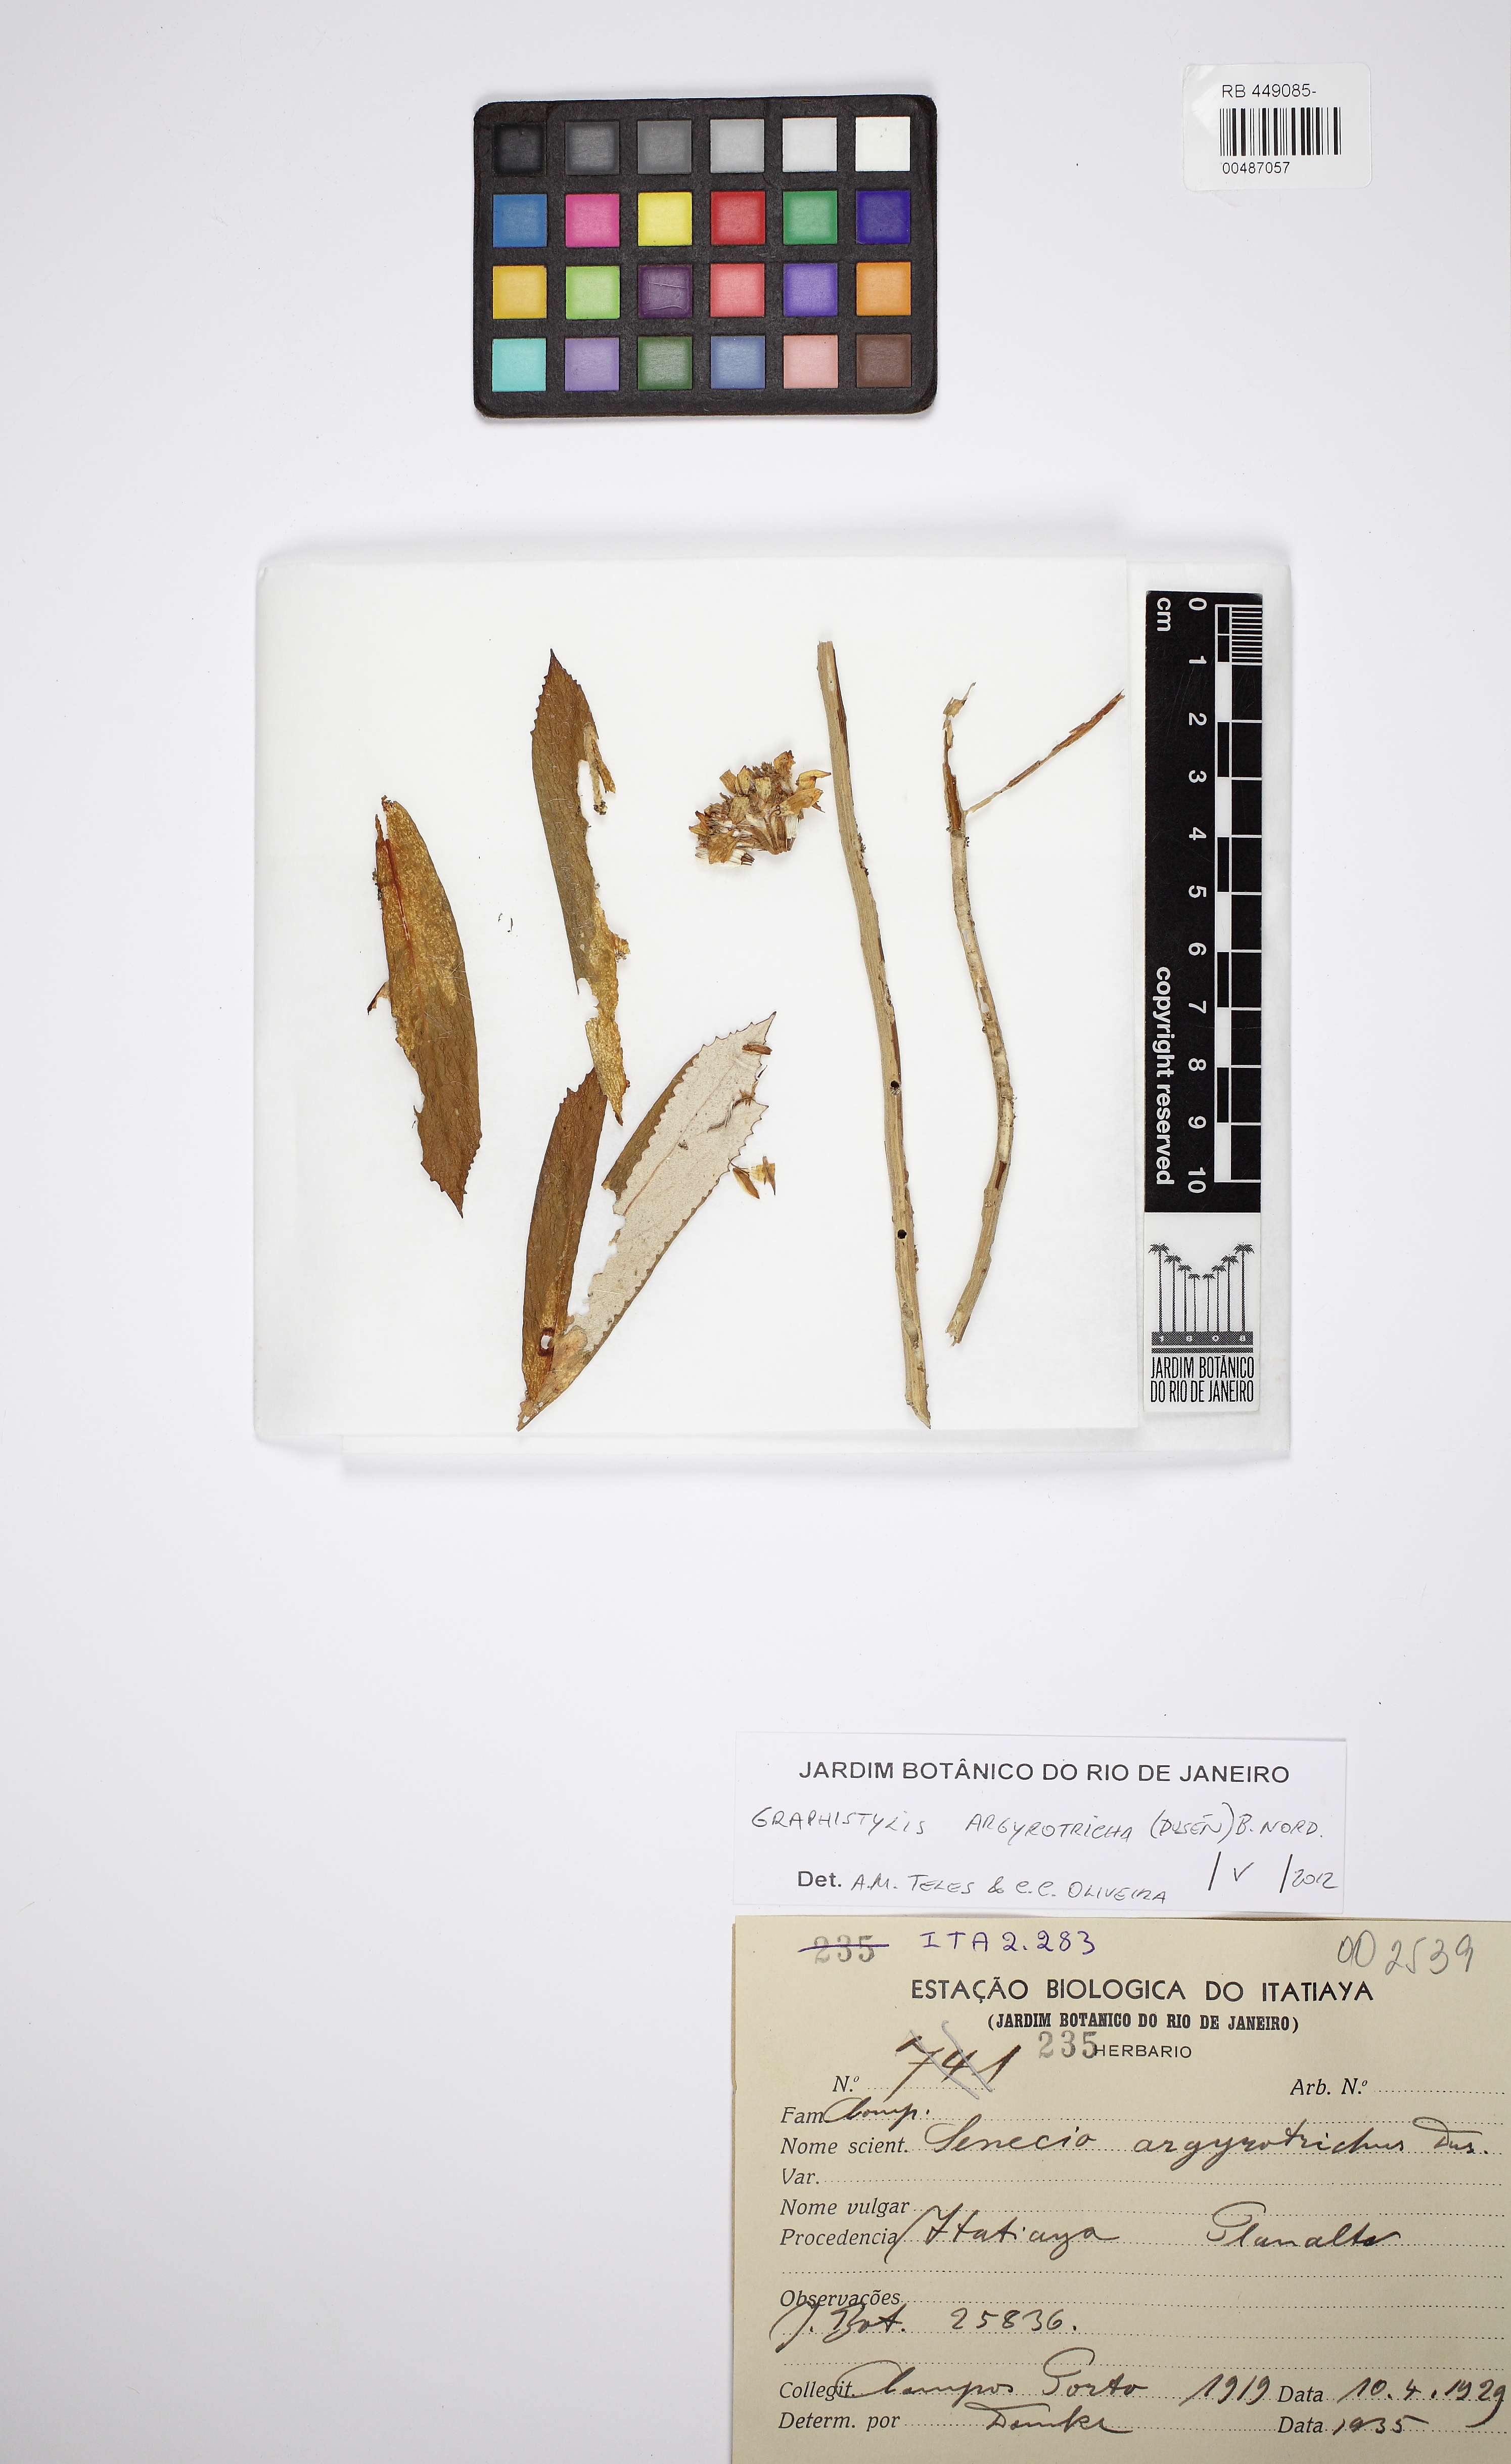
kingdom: Plantae
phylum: Tracheophyta
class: Magnoliopsida
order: Asterales
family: Asteraceae
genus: Graphistylis
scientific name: Graphistylis argyrotricha
